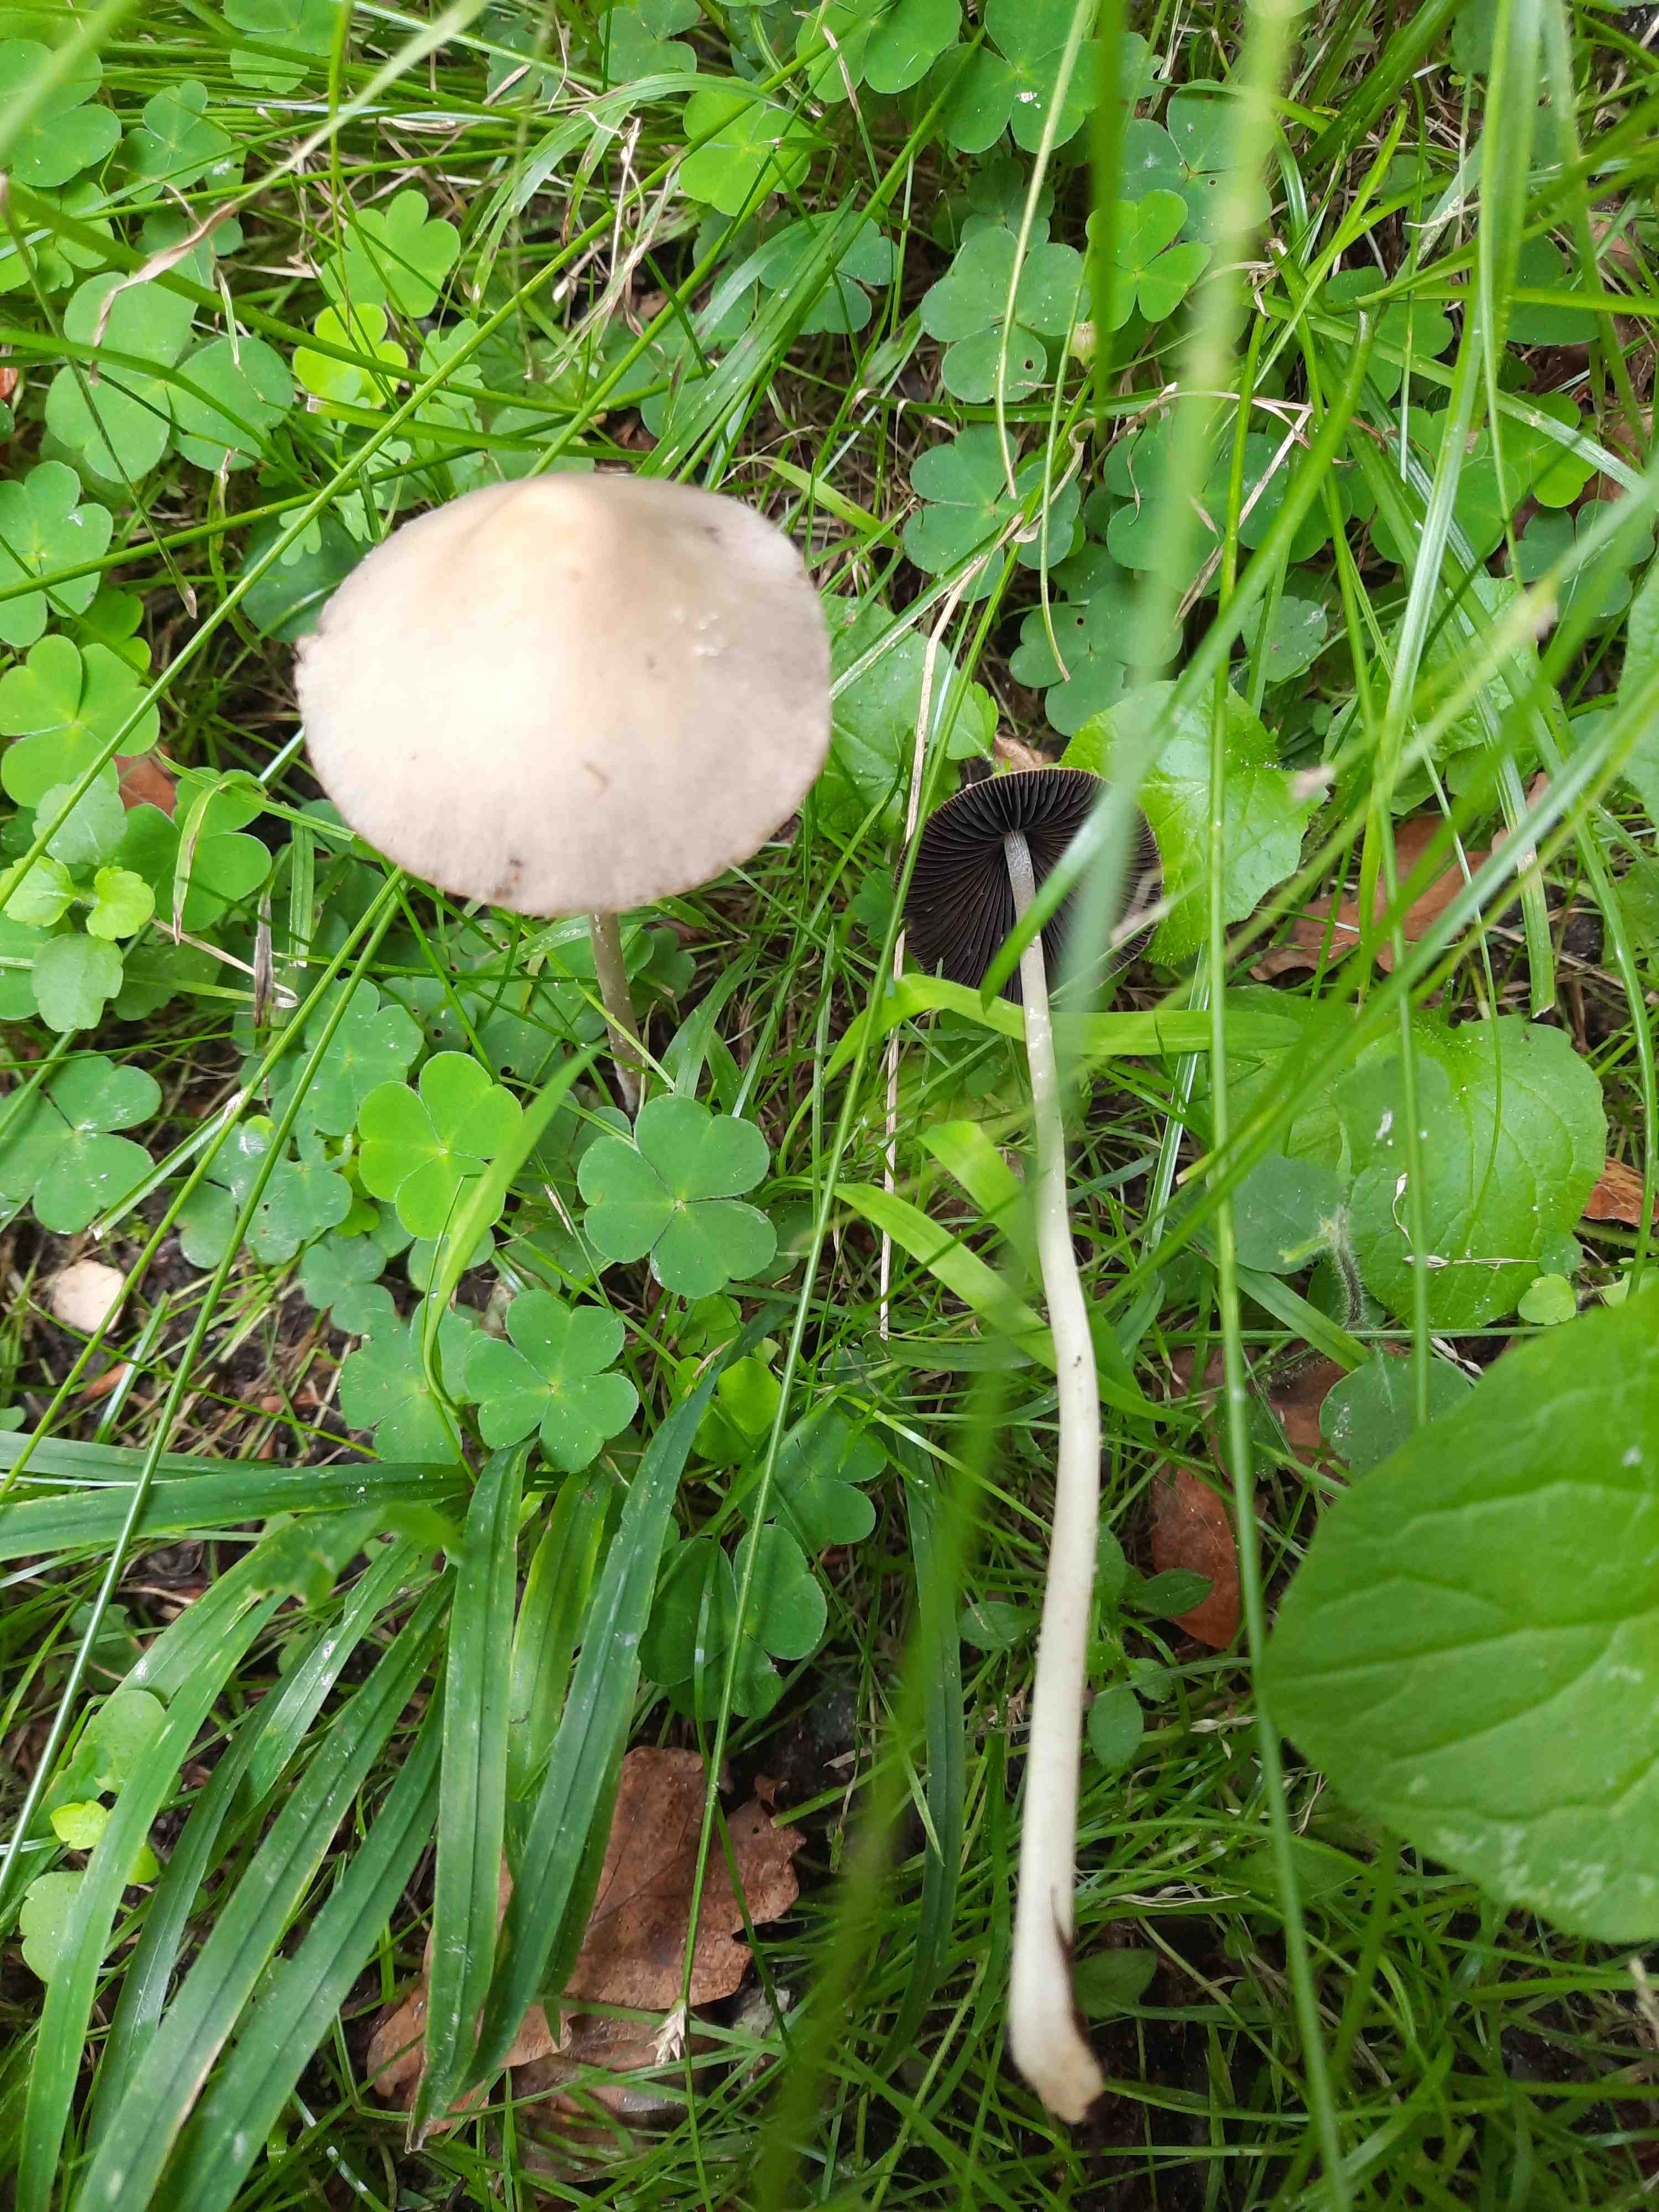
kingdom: Fungi
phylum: Basidiomycota
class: Agaricomycetes
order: Agaricales
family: Psathyrellaceae
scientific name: Psathyrellaceae
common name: mørkhatfamilien
